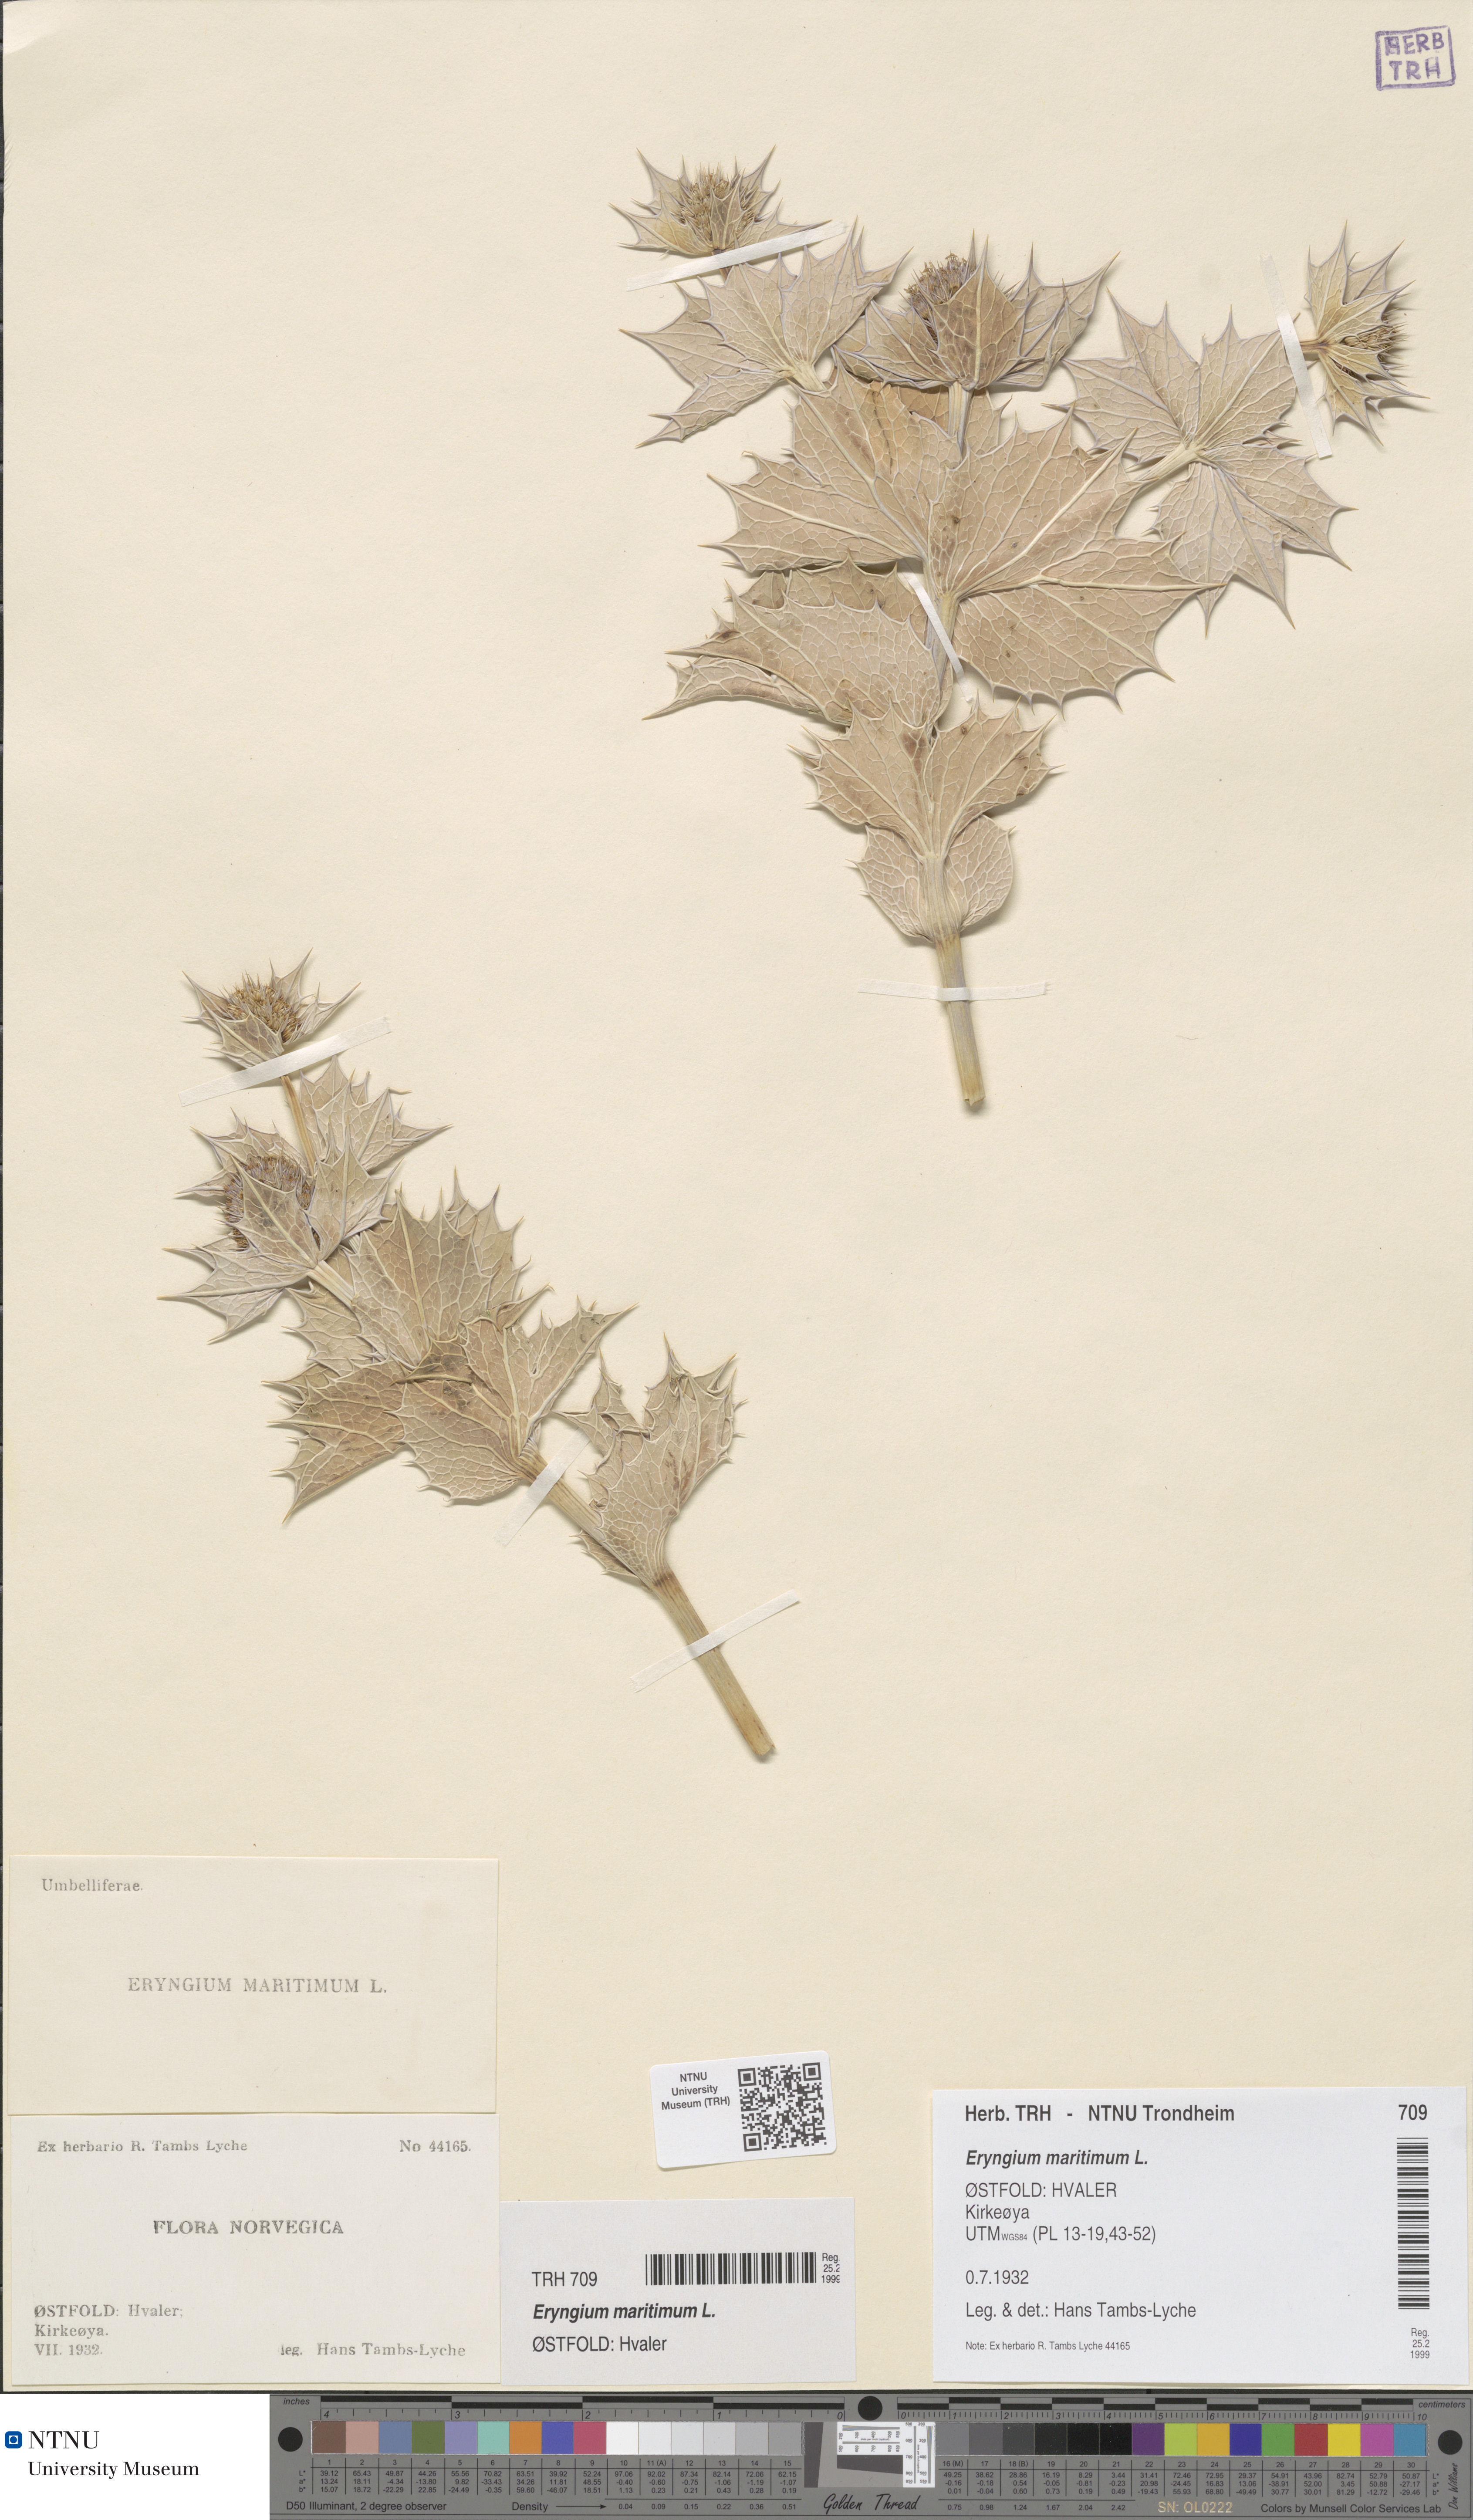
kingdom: Plantae
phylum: Tracheophyta
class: Magnoliopsida
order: Apiales
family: Apiaceae
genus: Eryngium
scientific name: Eryngium maritimum
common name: Sea-holly
